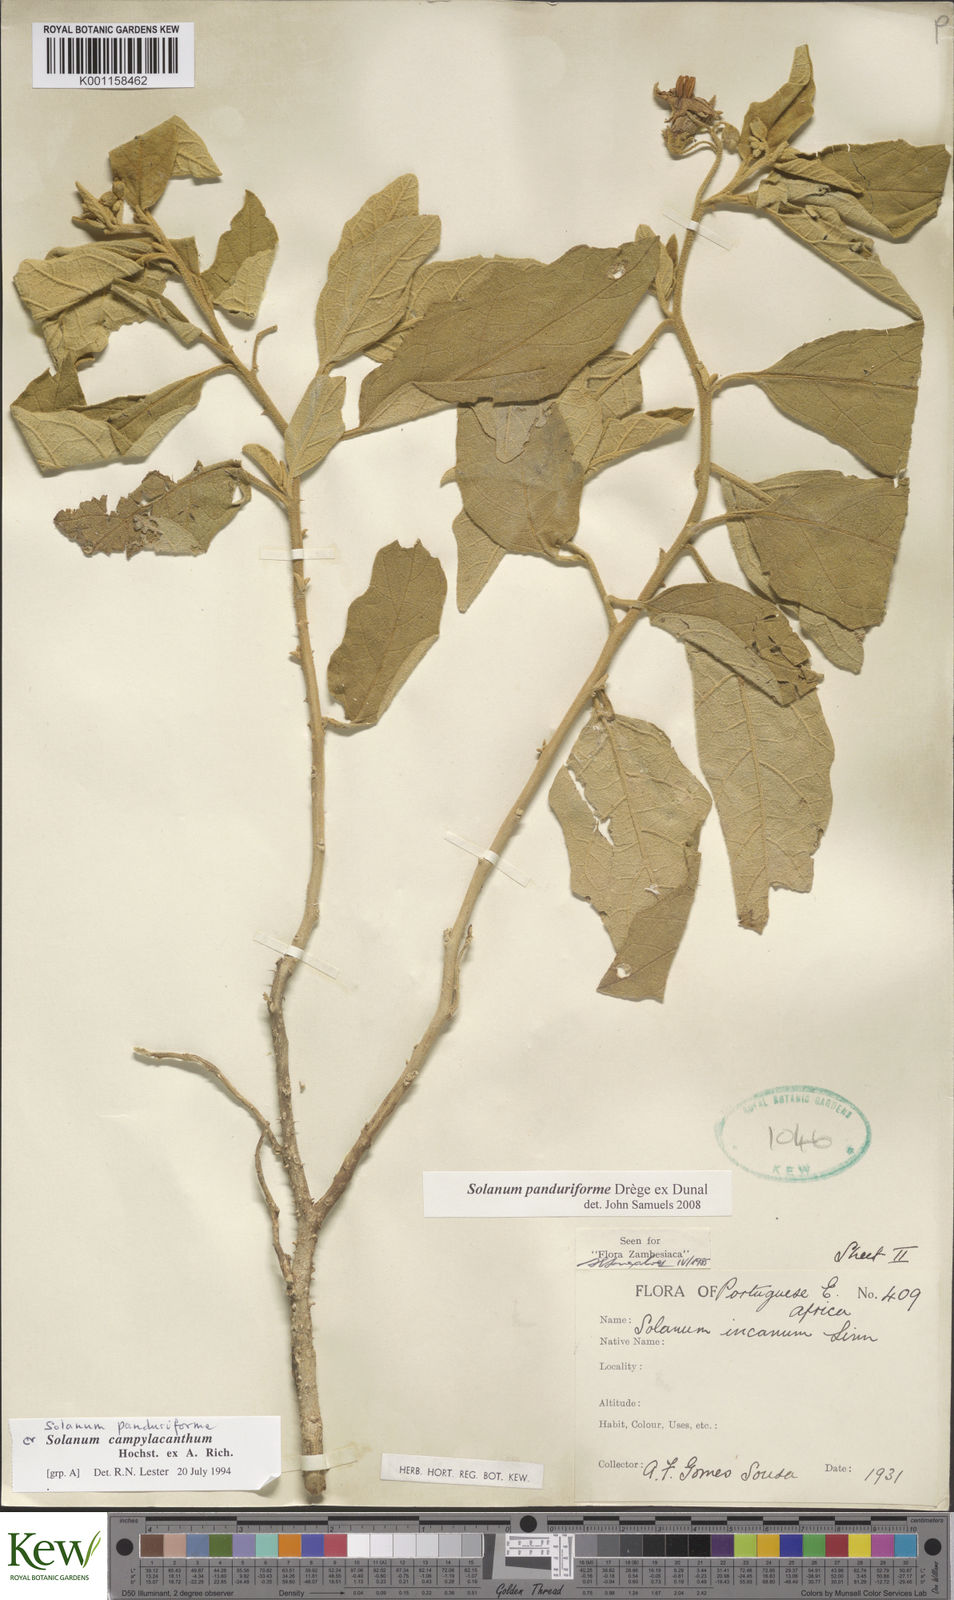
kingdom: Plantae
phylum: Tracheophyta
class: Magnoliopsida
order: Solanales
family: Solanaceae
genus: Solanum
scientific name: Solanum campylacanthum
